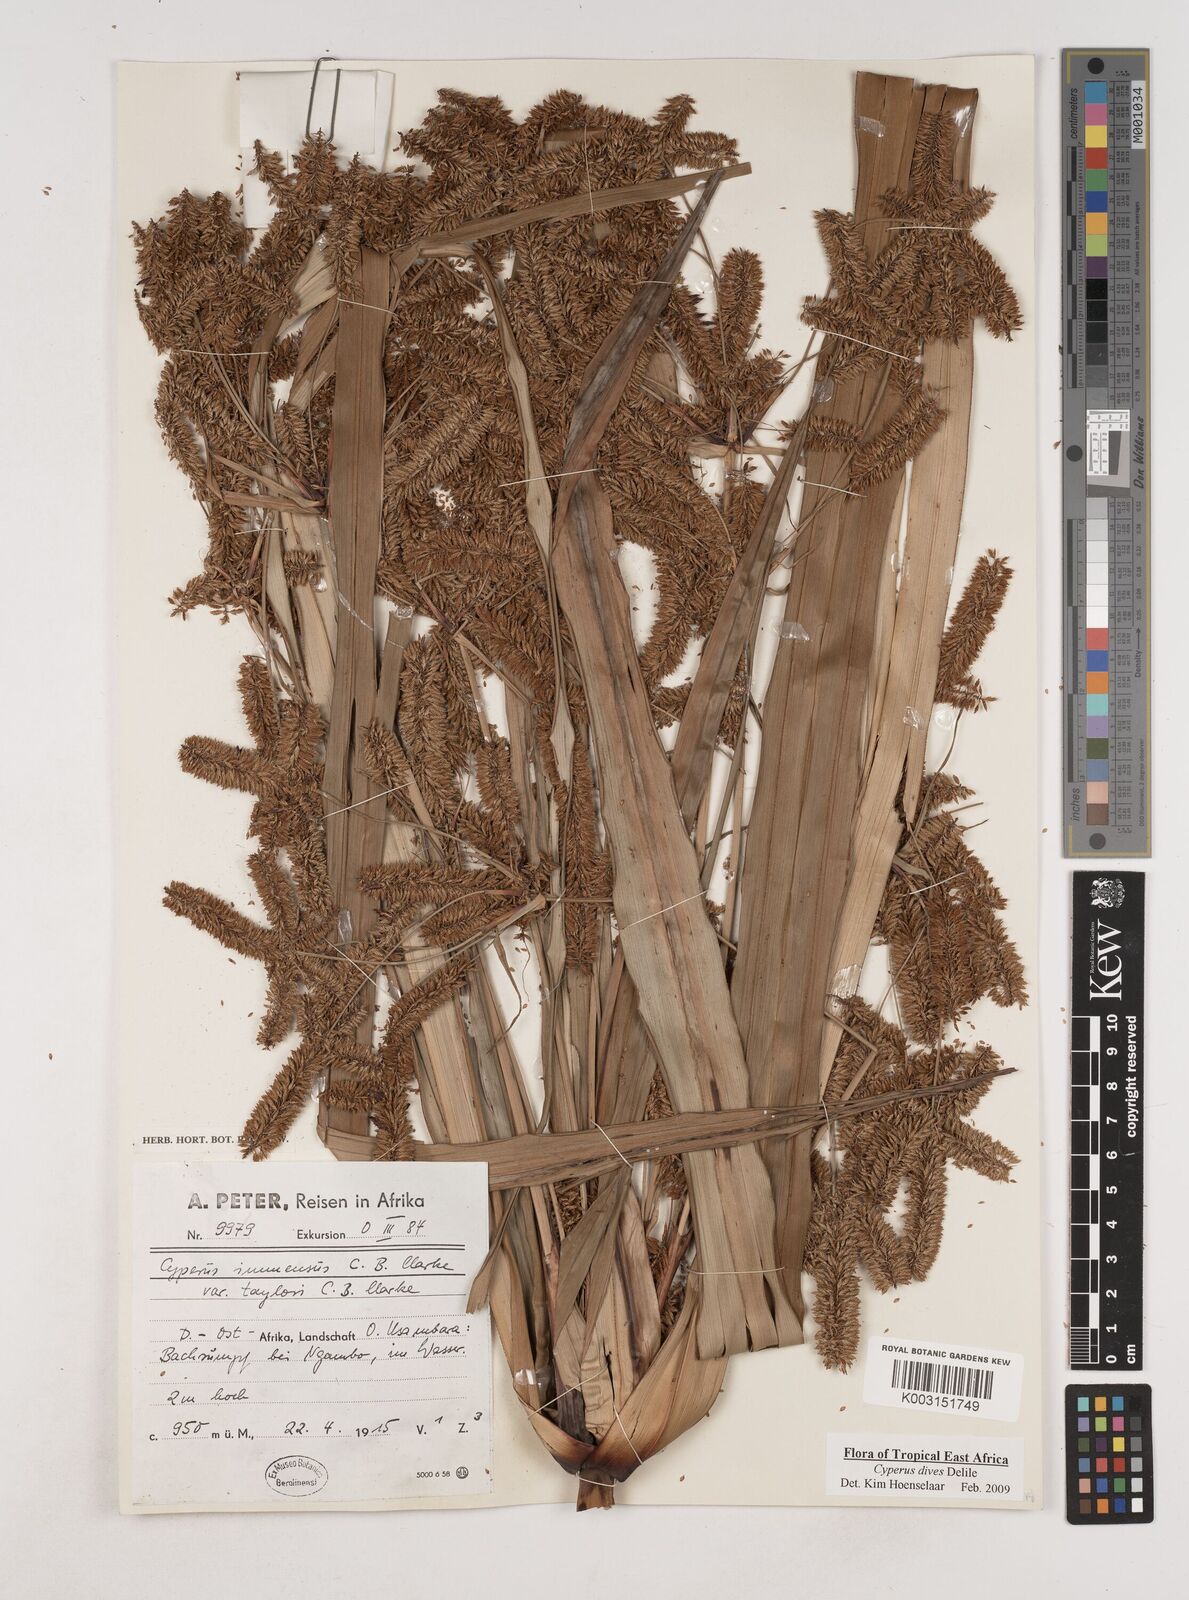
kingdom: Plantae
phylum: Tracheophyta
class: Liliopsida
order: Poales
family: Cyperaceae
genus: Cyperus
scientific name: Cyperus dives
